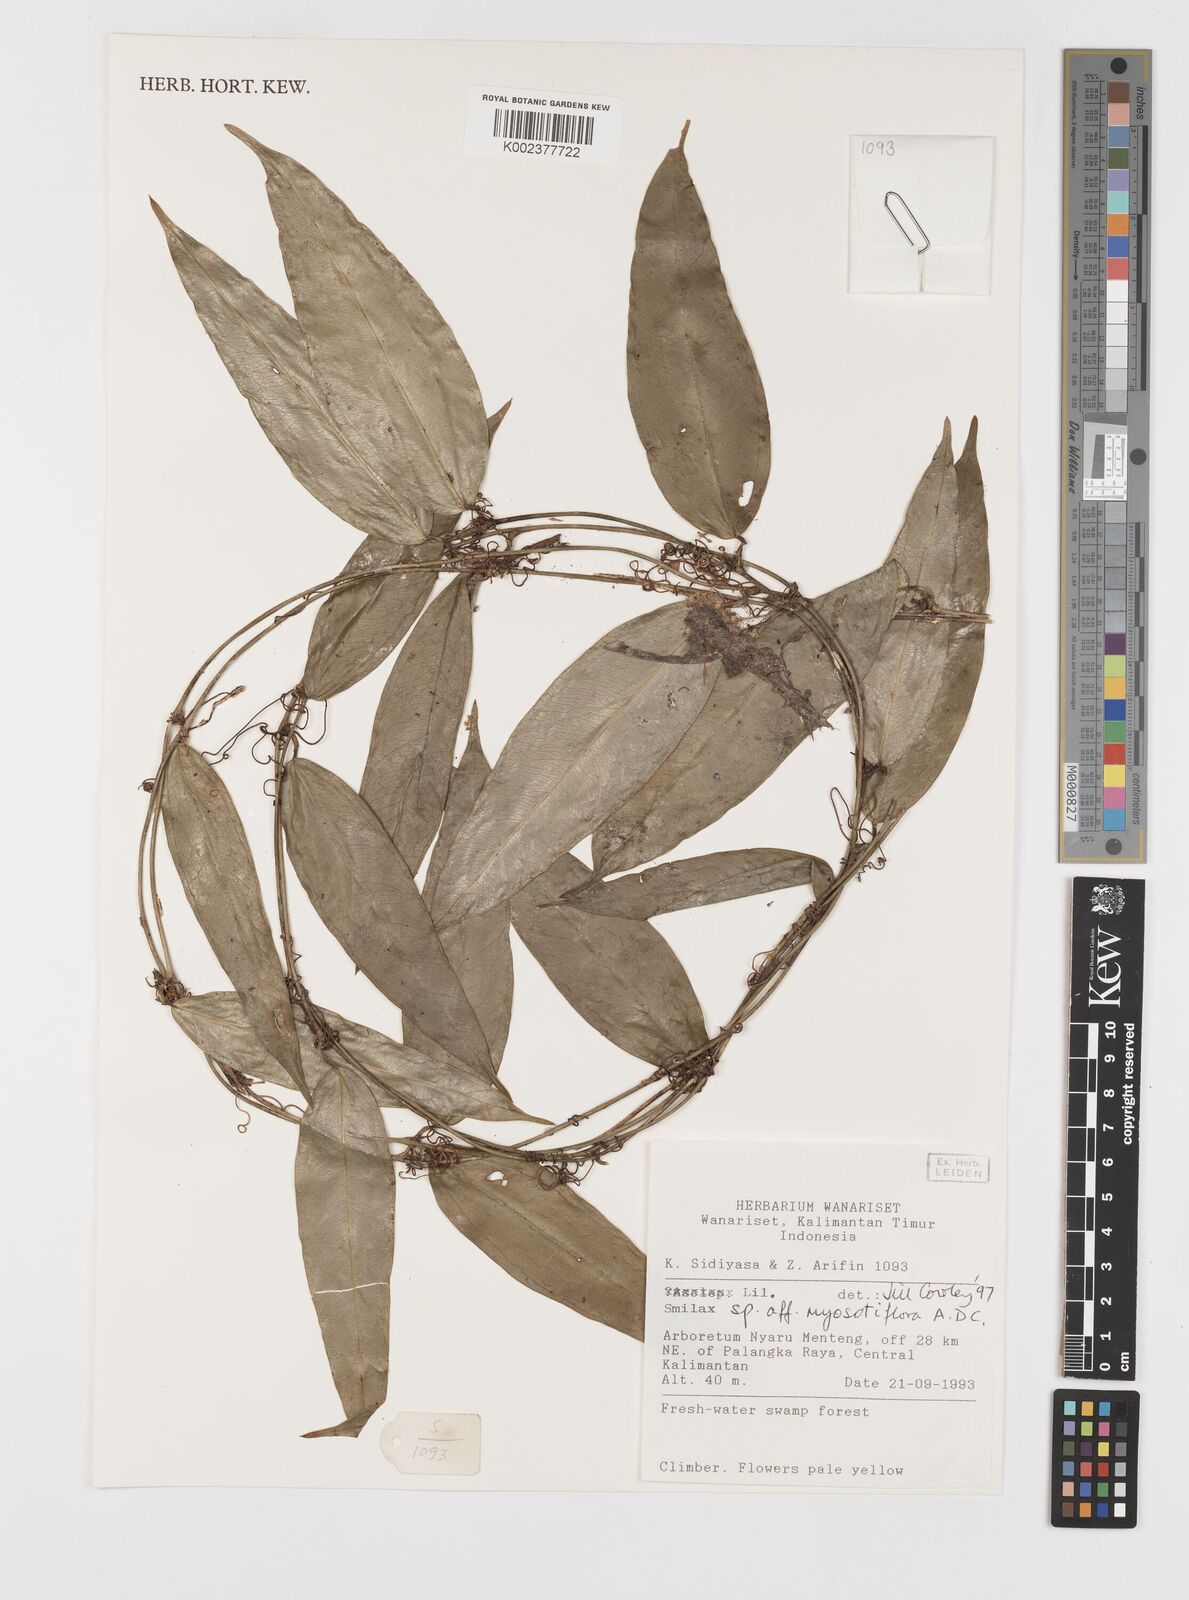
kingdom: Plantae
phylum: Tracheophyta
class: Liliopsida
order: Liliales
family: Smilacaceae
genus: Smilax
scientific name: Smilax myosotiflora
